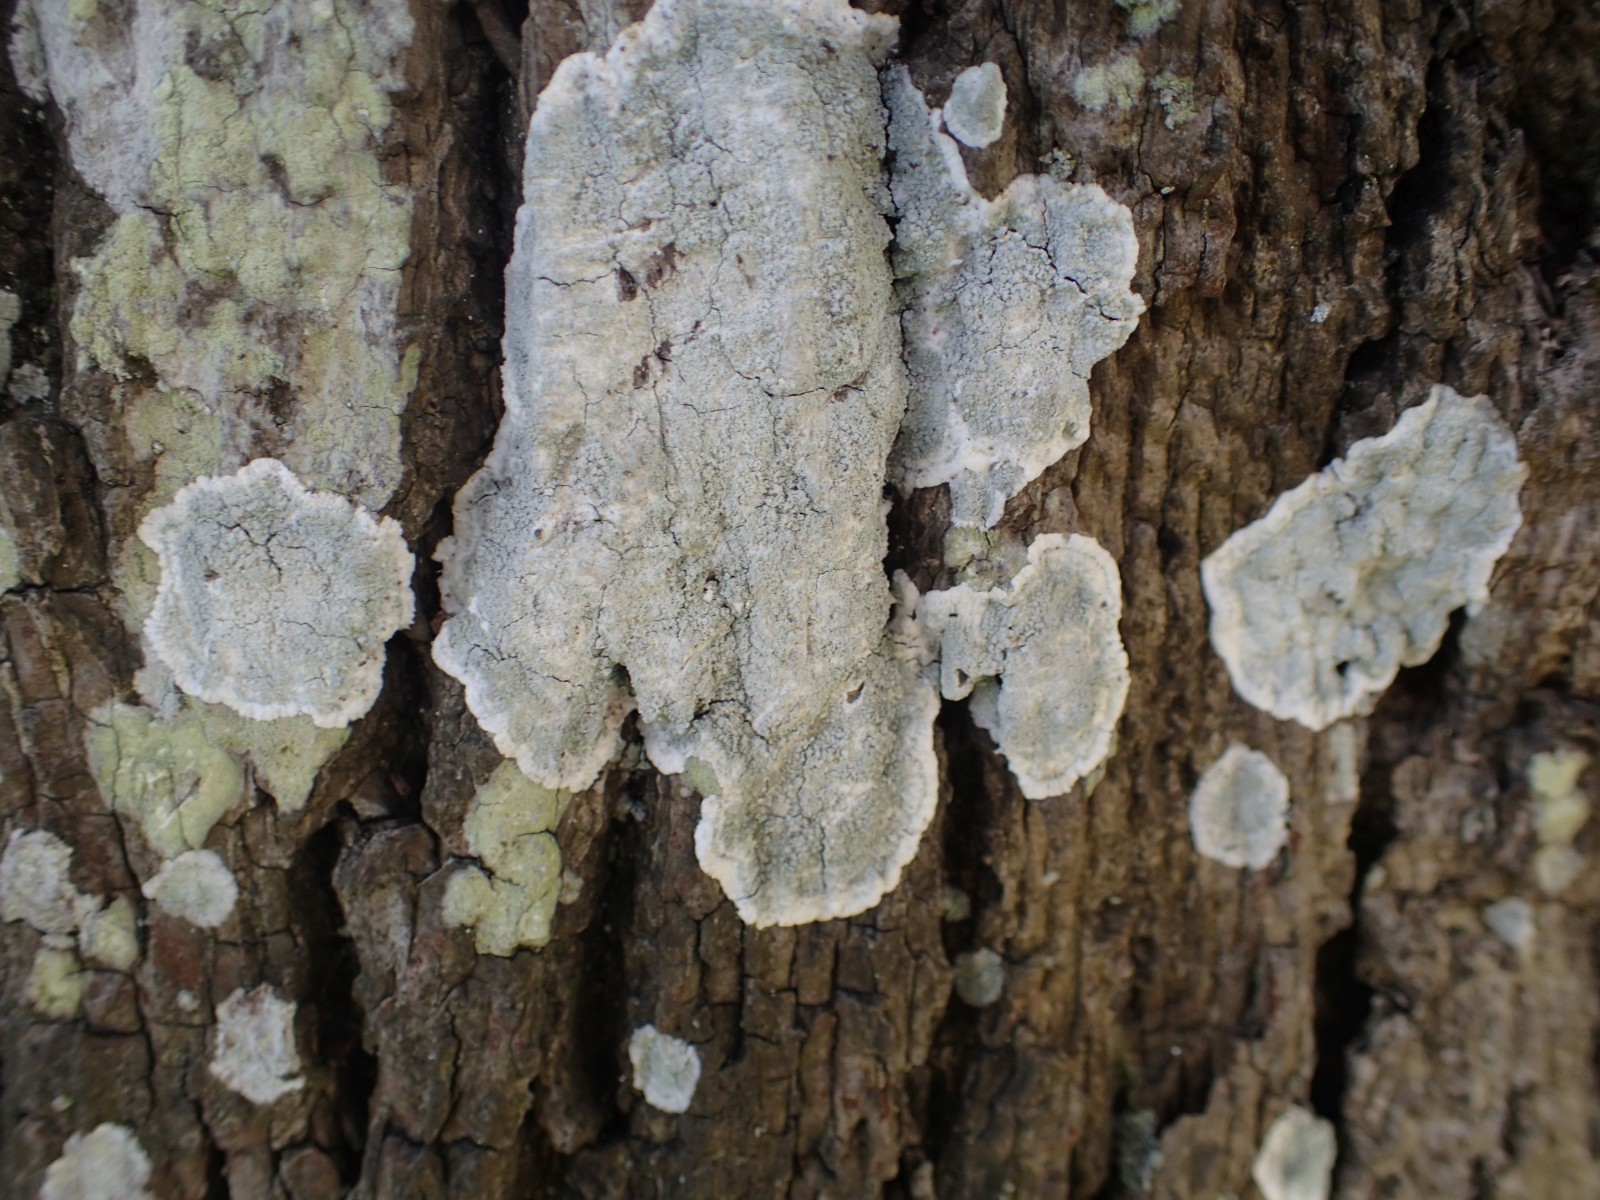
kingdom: Fungi
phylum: Ascomycota
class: Lecanoromycetes
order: Lecanorales
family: Haematommataceae
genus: Haematomma
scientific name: Haematomma ochroleucum
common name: gul trådkantlav
